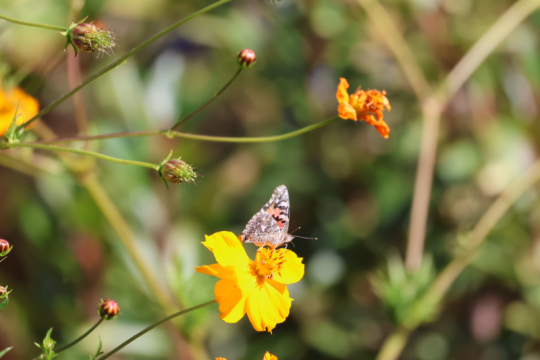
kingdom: Animalia
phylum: Arthropoda
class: Insecta
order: Lepidoptera
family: Nymphalidae
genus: Vanessa
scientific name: Vanessa cardui
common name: Painted Lady
